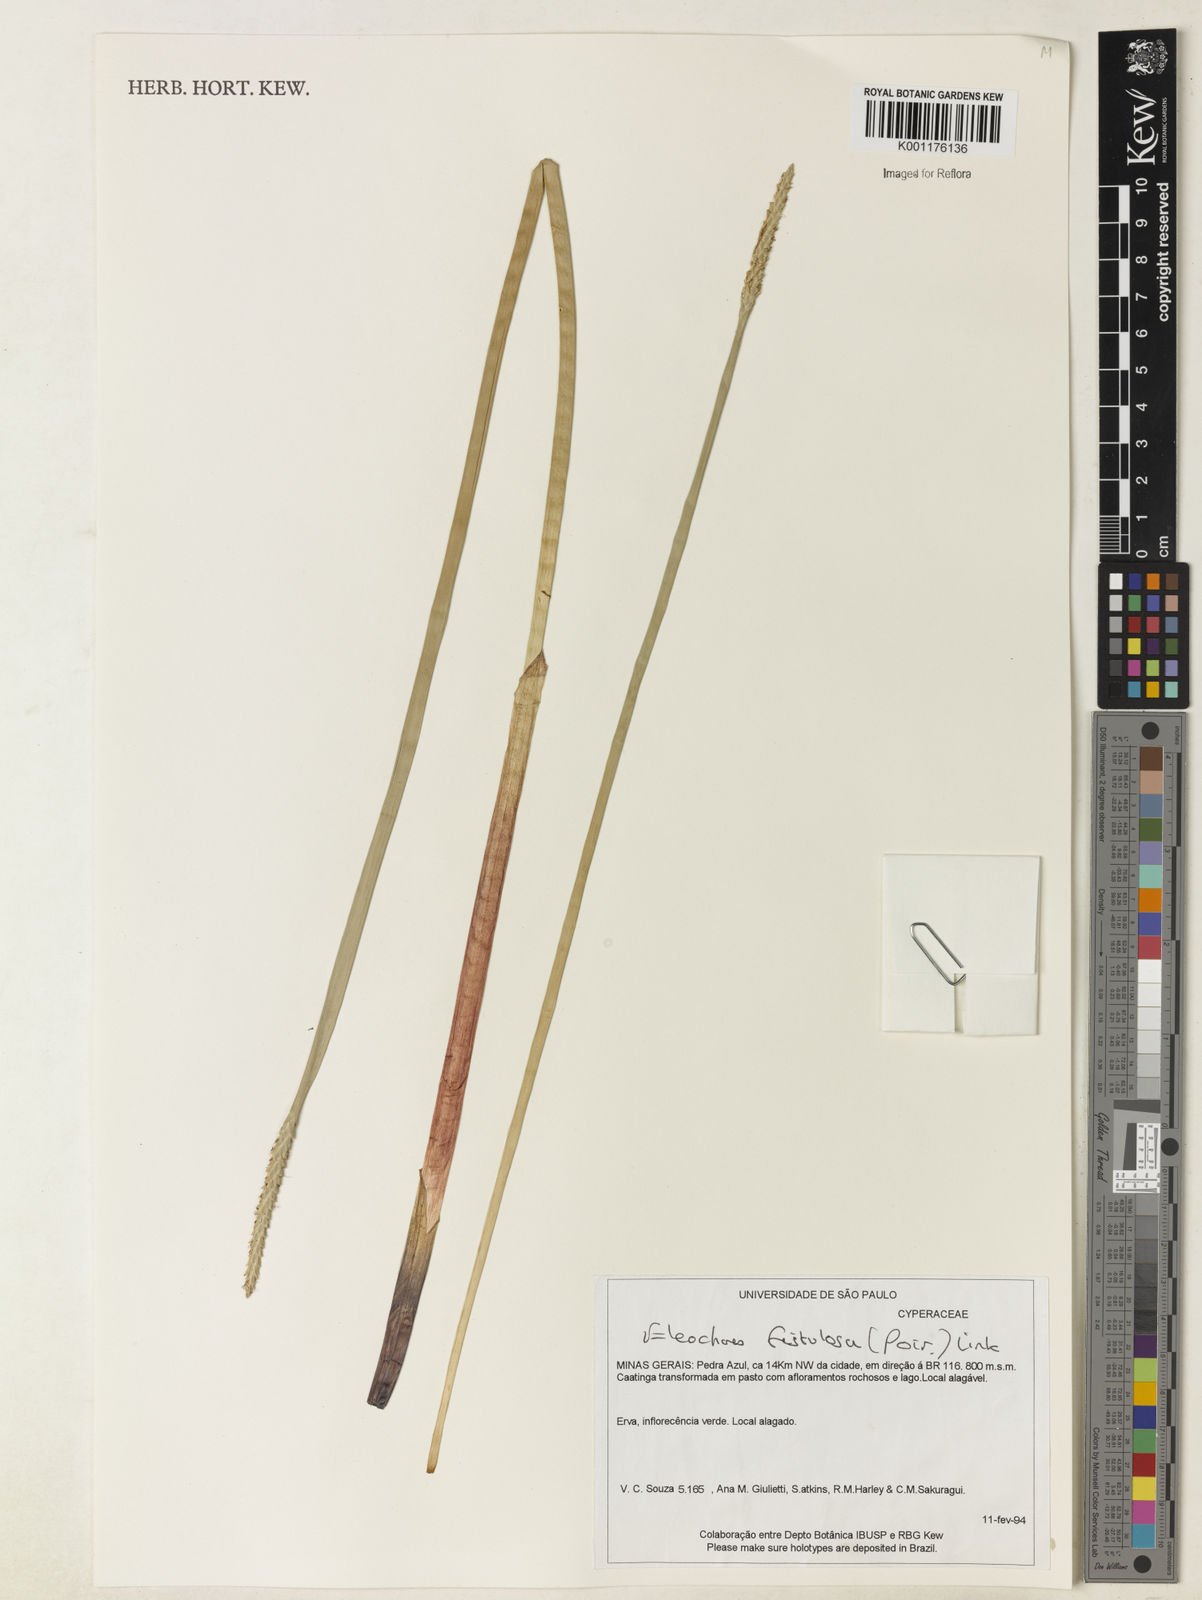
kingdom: Plantae
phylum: Tracheophyta
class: Liliopsida
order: Poales
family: Cyperaceae
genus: Eleocharis
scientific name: Eleocharis acutangula
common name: Acute spikerush
